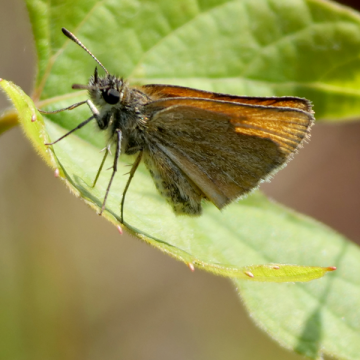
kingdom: Animalia
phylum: Arthropoda
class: Insecta
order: Lepidoptera
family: Hesperiidae
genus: Thymelicus
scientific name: Thymelicus lineola
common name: European Skipper
